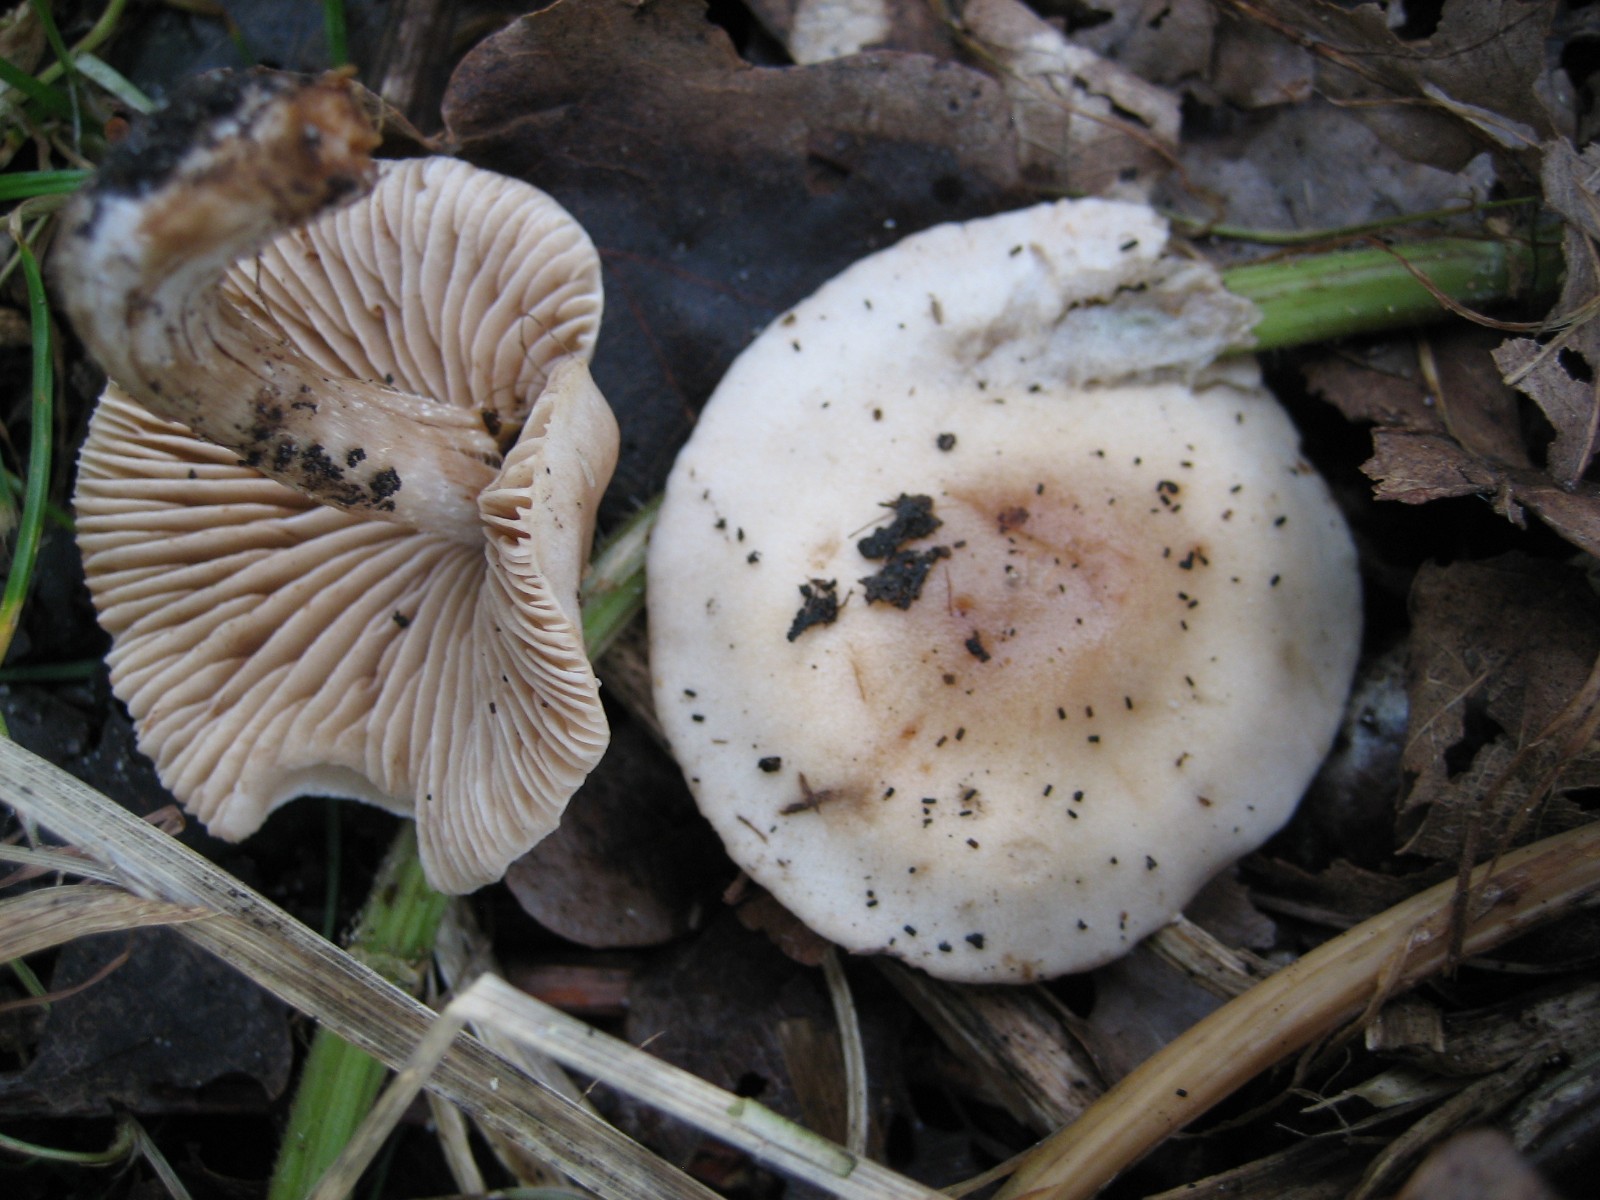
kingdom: Fungi
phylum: Basidiomycota
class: Agaricomycetes
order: Agaricales
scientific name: Agaricales
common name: champignonordenen
